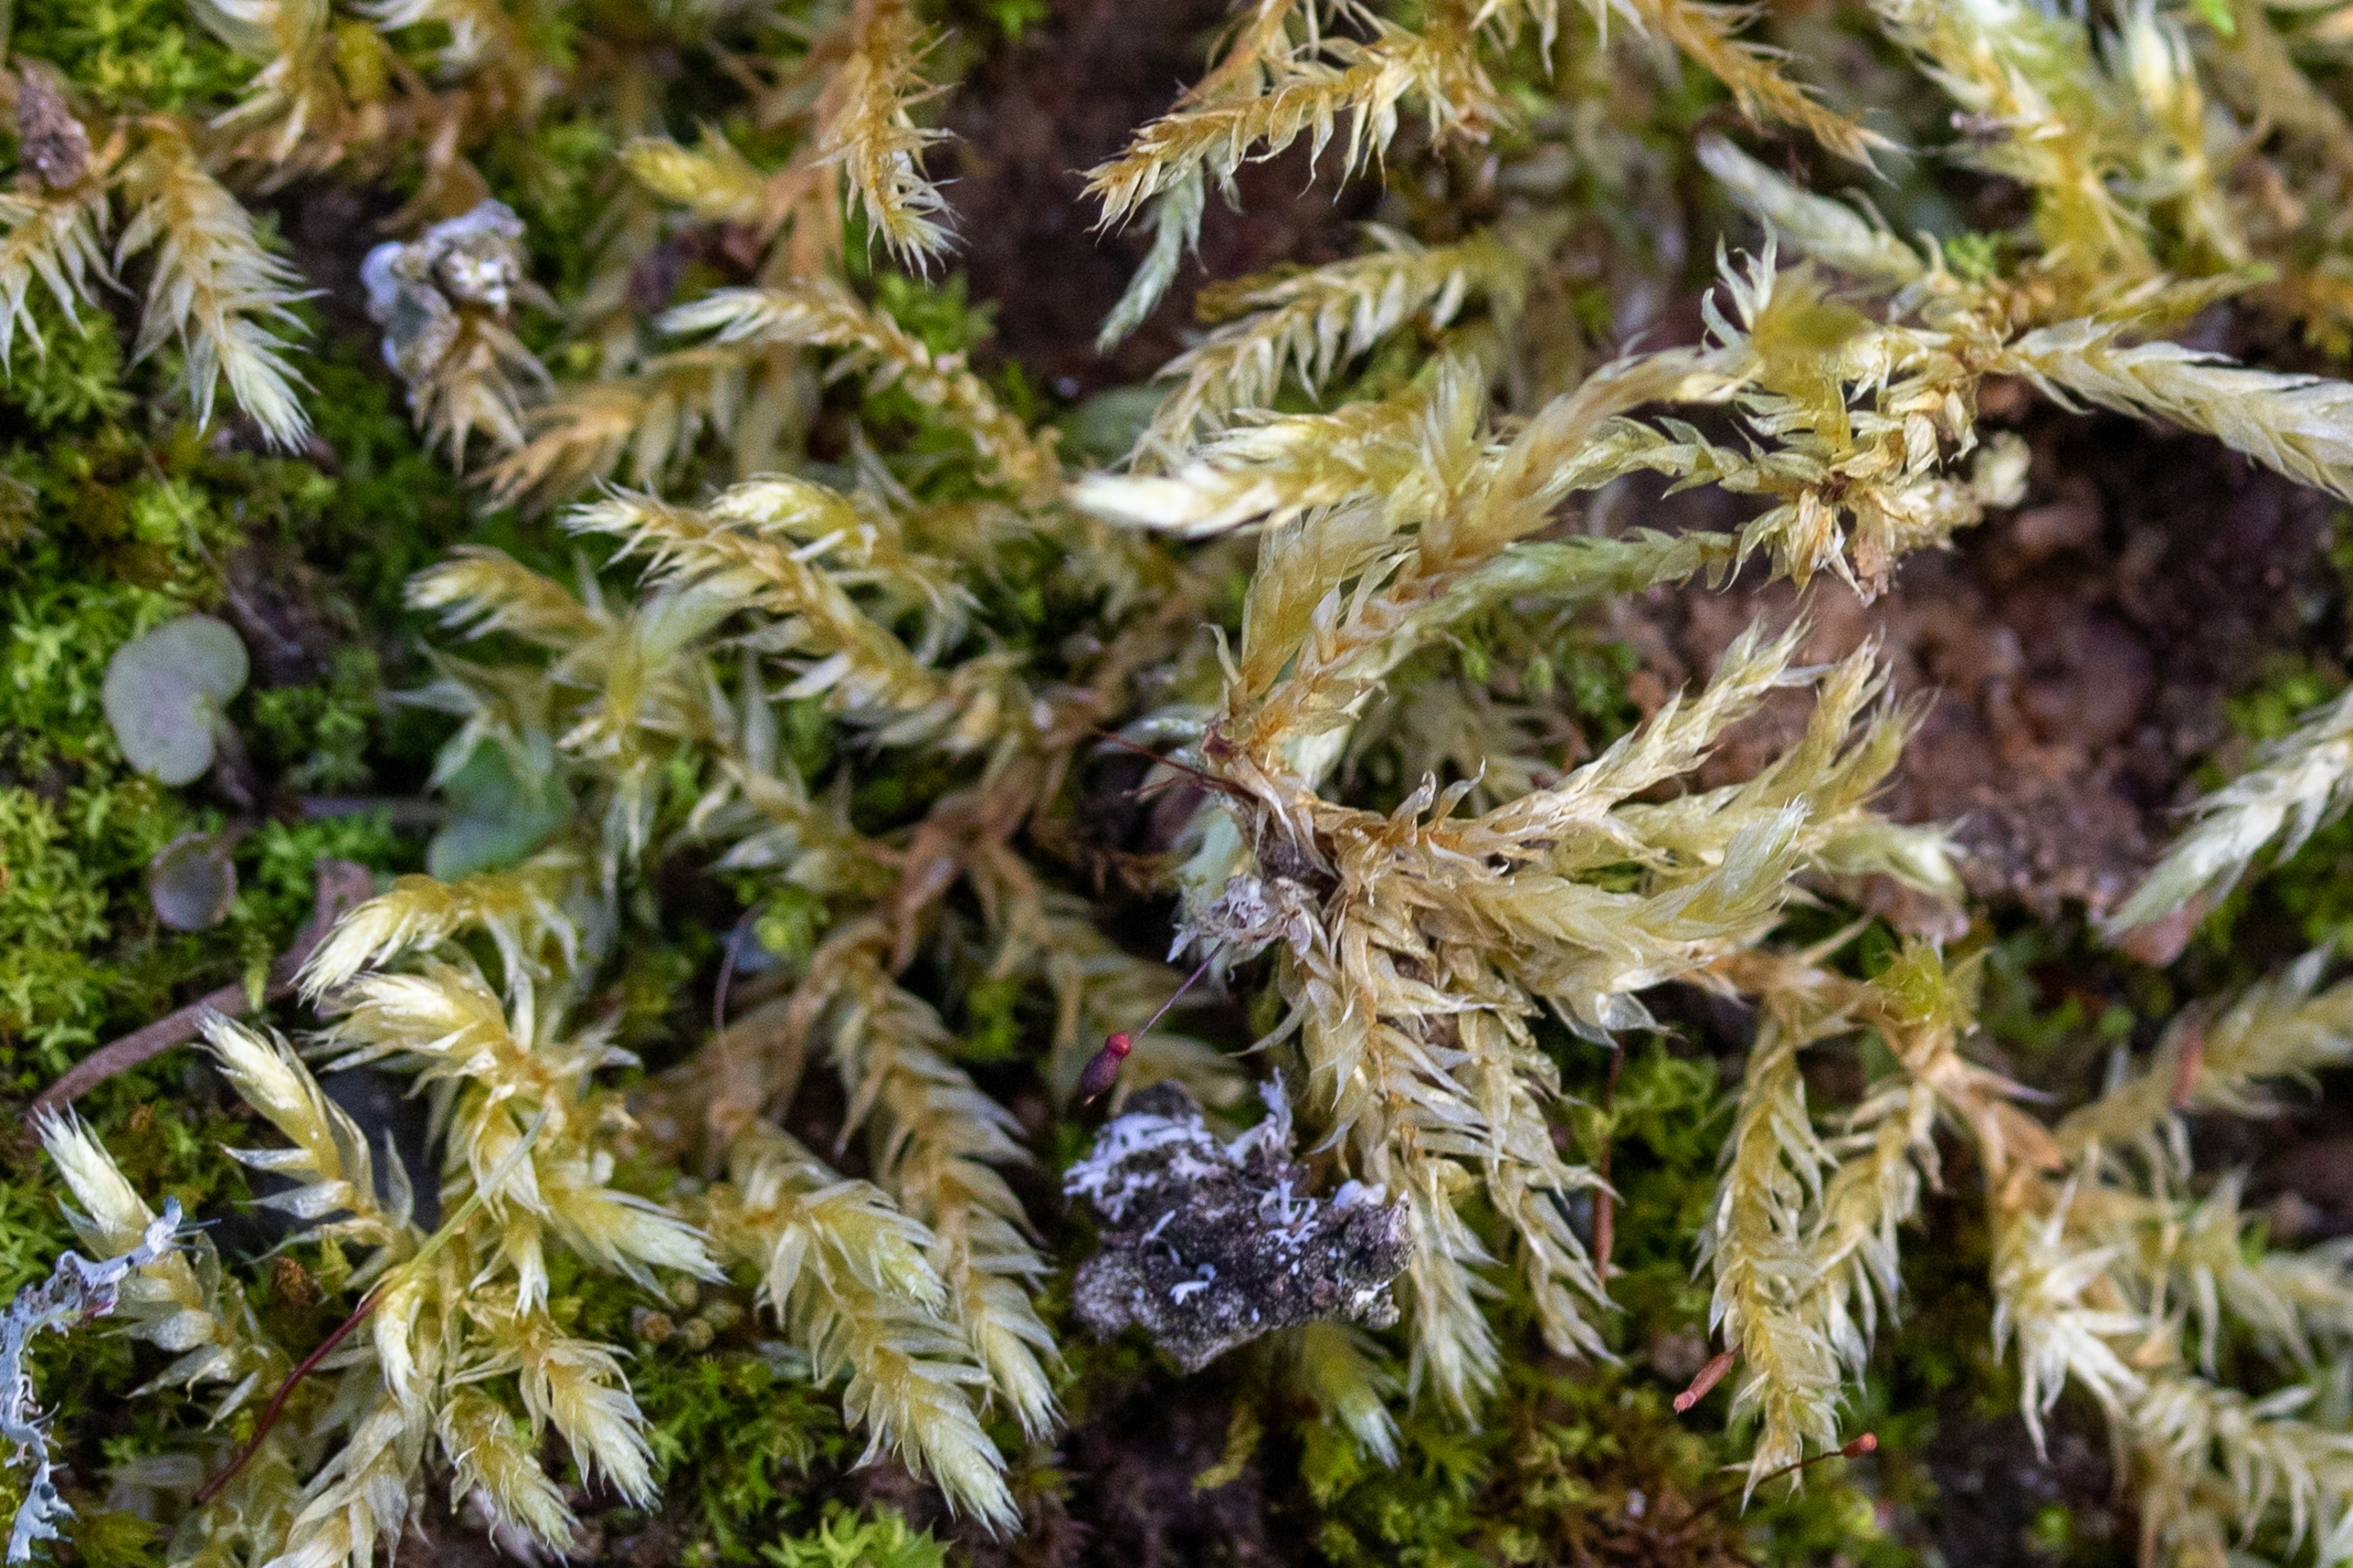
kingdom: Plantae
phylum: Bryophyta
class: Bryopsida
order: Hypnales
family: Brachytheciaceae
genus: Brachythecium
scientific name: Brachythecium
